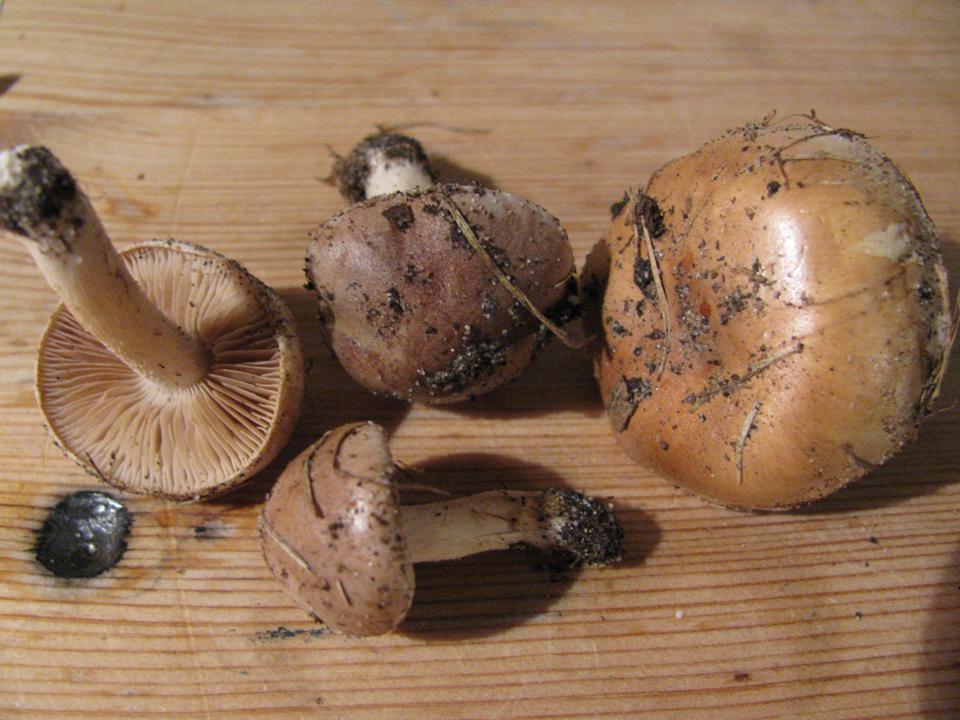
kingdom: Fungi
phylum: Basidiomycota
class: Agaricomycetes
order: Agaricales
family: Hymenogastraceae
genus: Hebeloma
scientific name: Hebeloma cavipes
